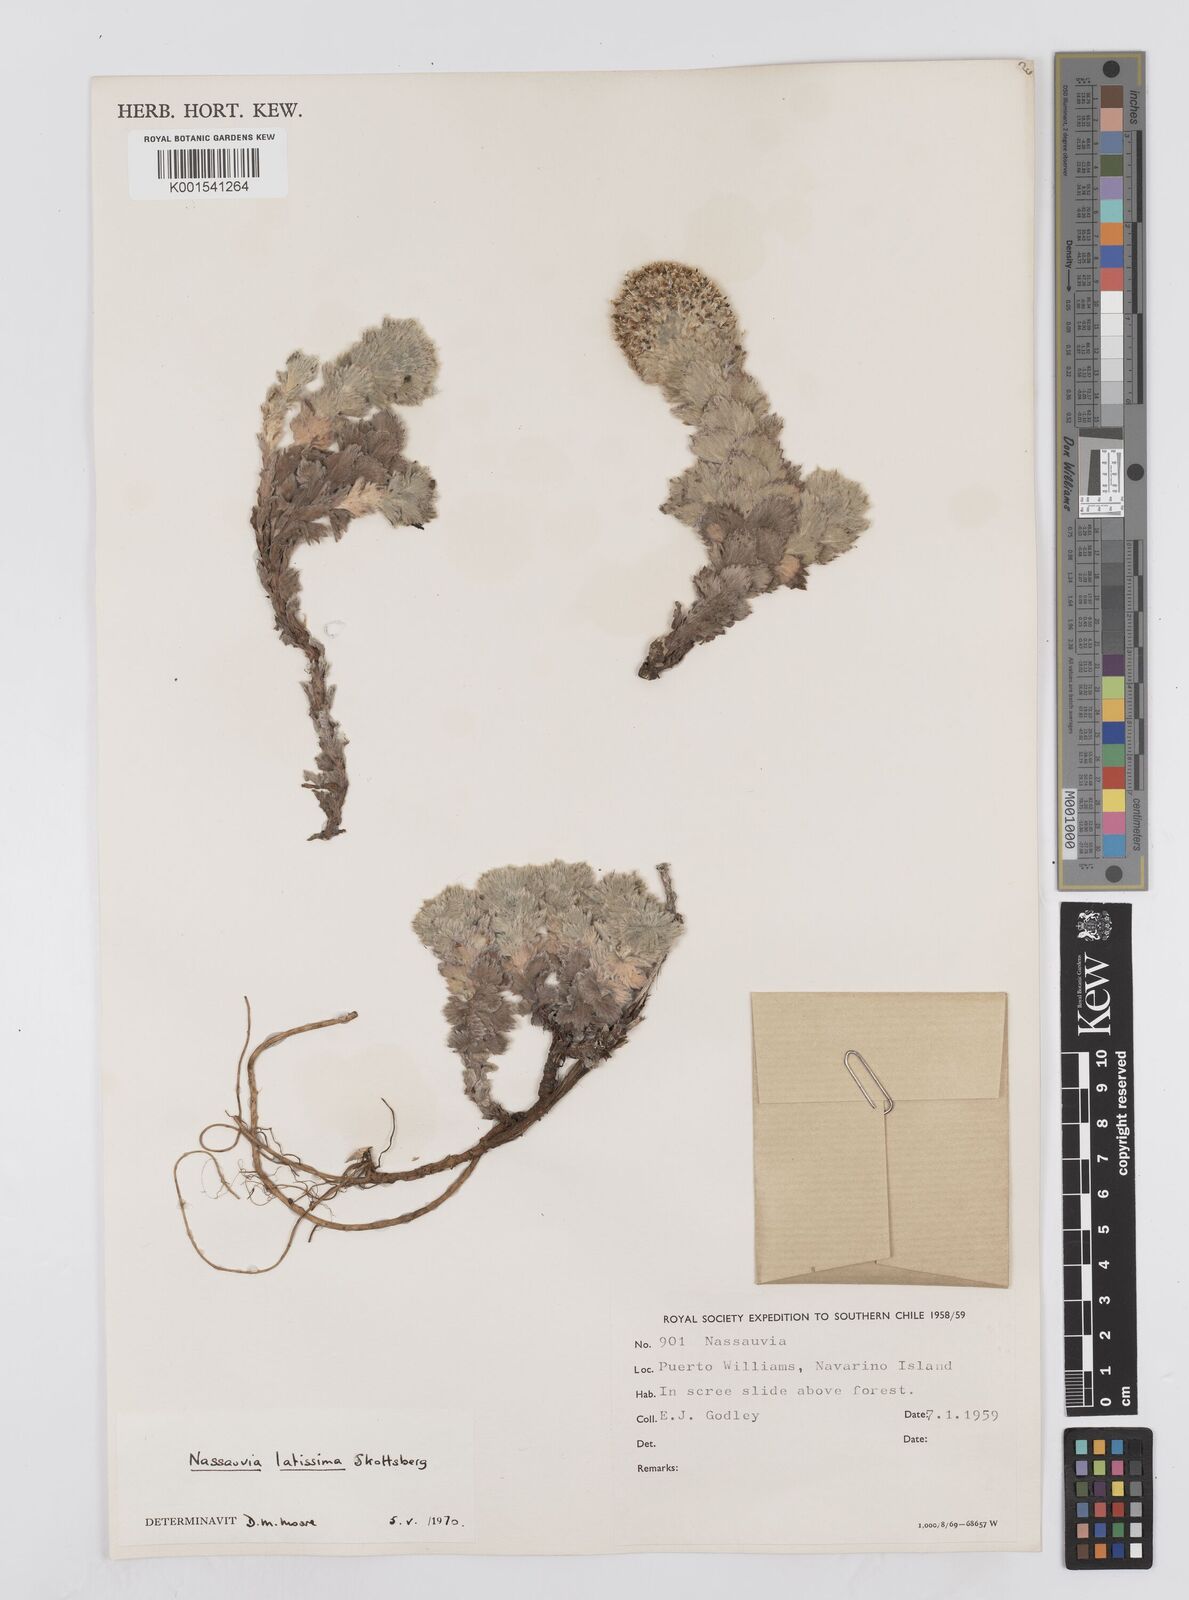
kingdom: Plantae
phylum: Tracheophyta
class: Magnoliopsida
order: Asterales
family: Asteraceae
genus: Nassauvia
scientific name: Nassauvia latissima
